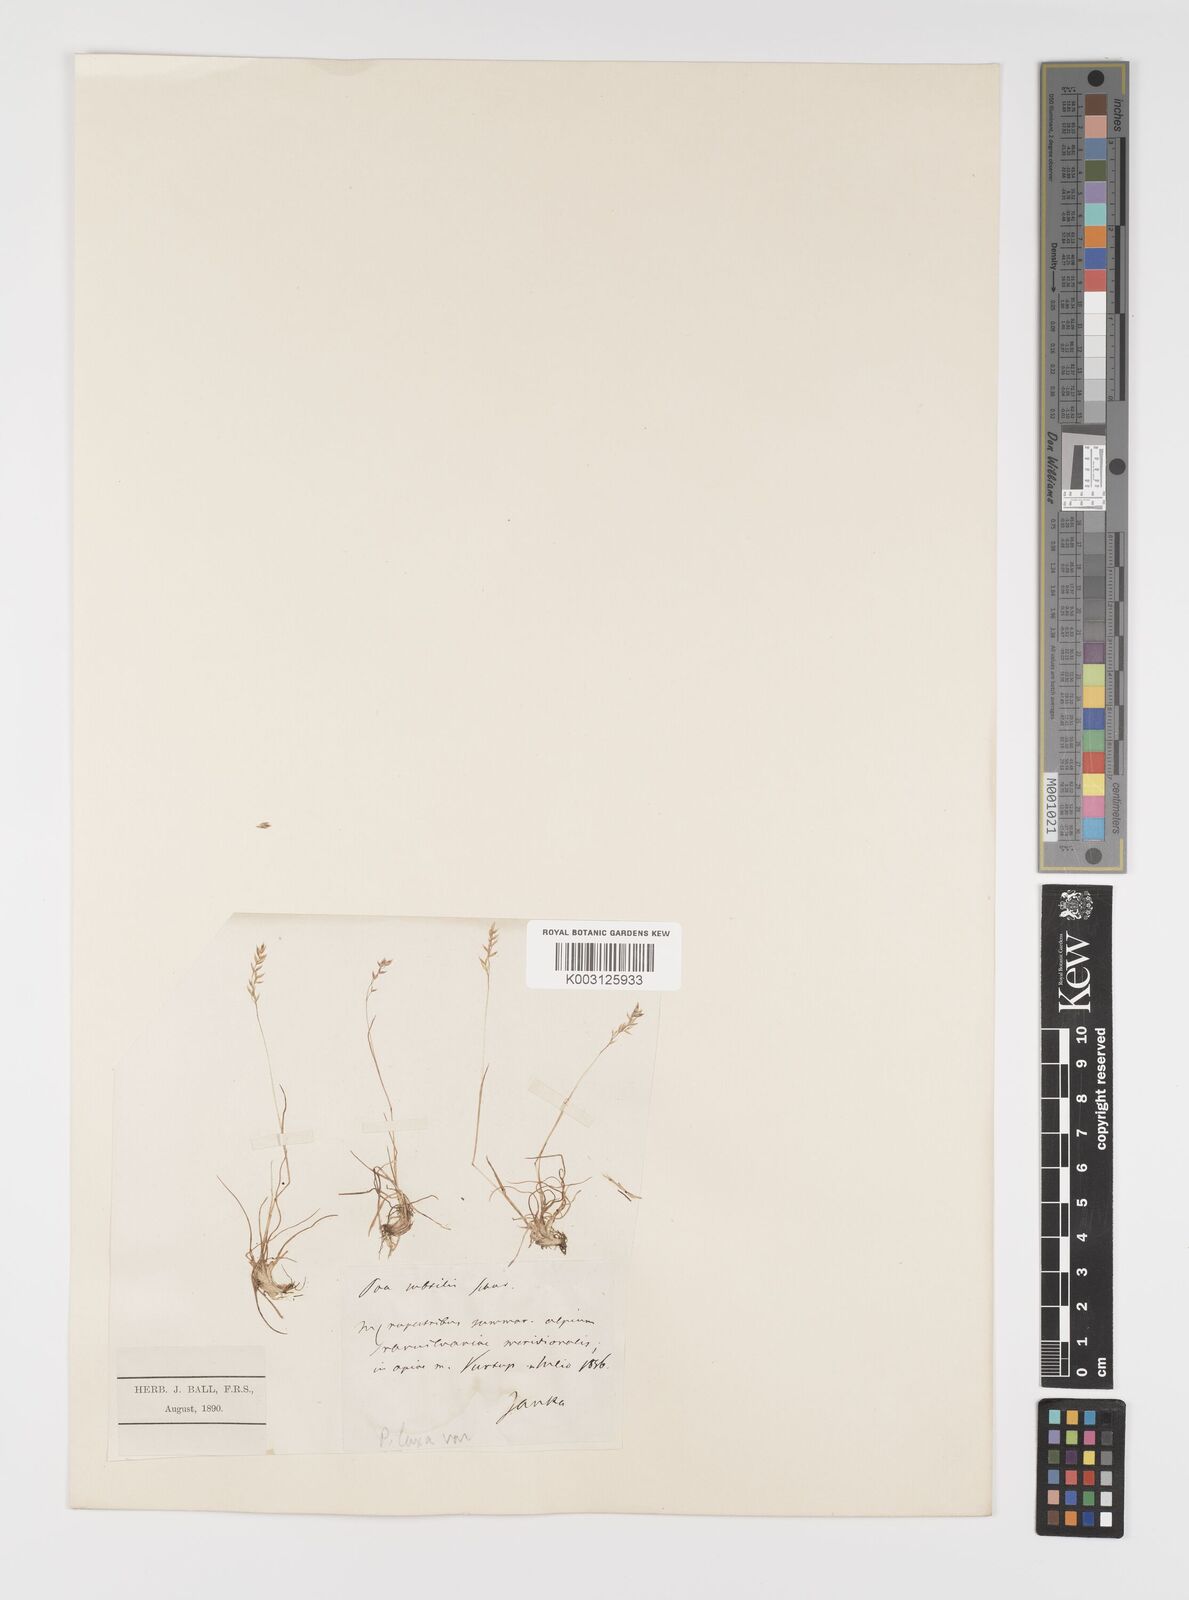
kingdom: Plantae
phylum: Tracheophyta
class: Liliopsida
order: Poales
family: Poaceae
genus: Poa
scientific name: Poa laxa
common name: Lax bluegrass
